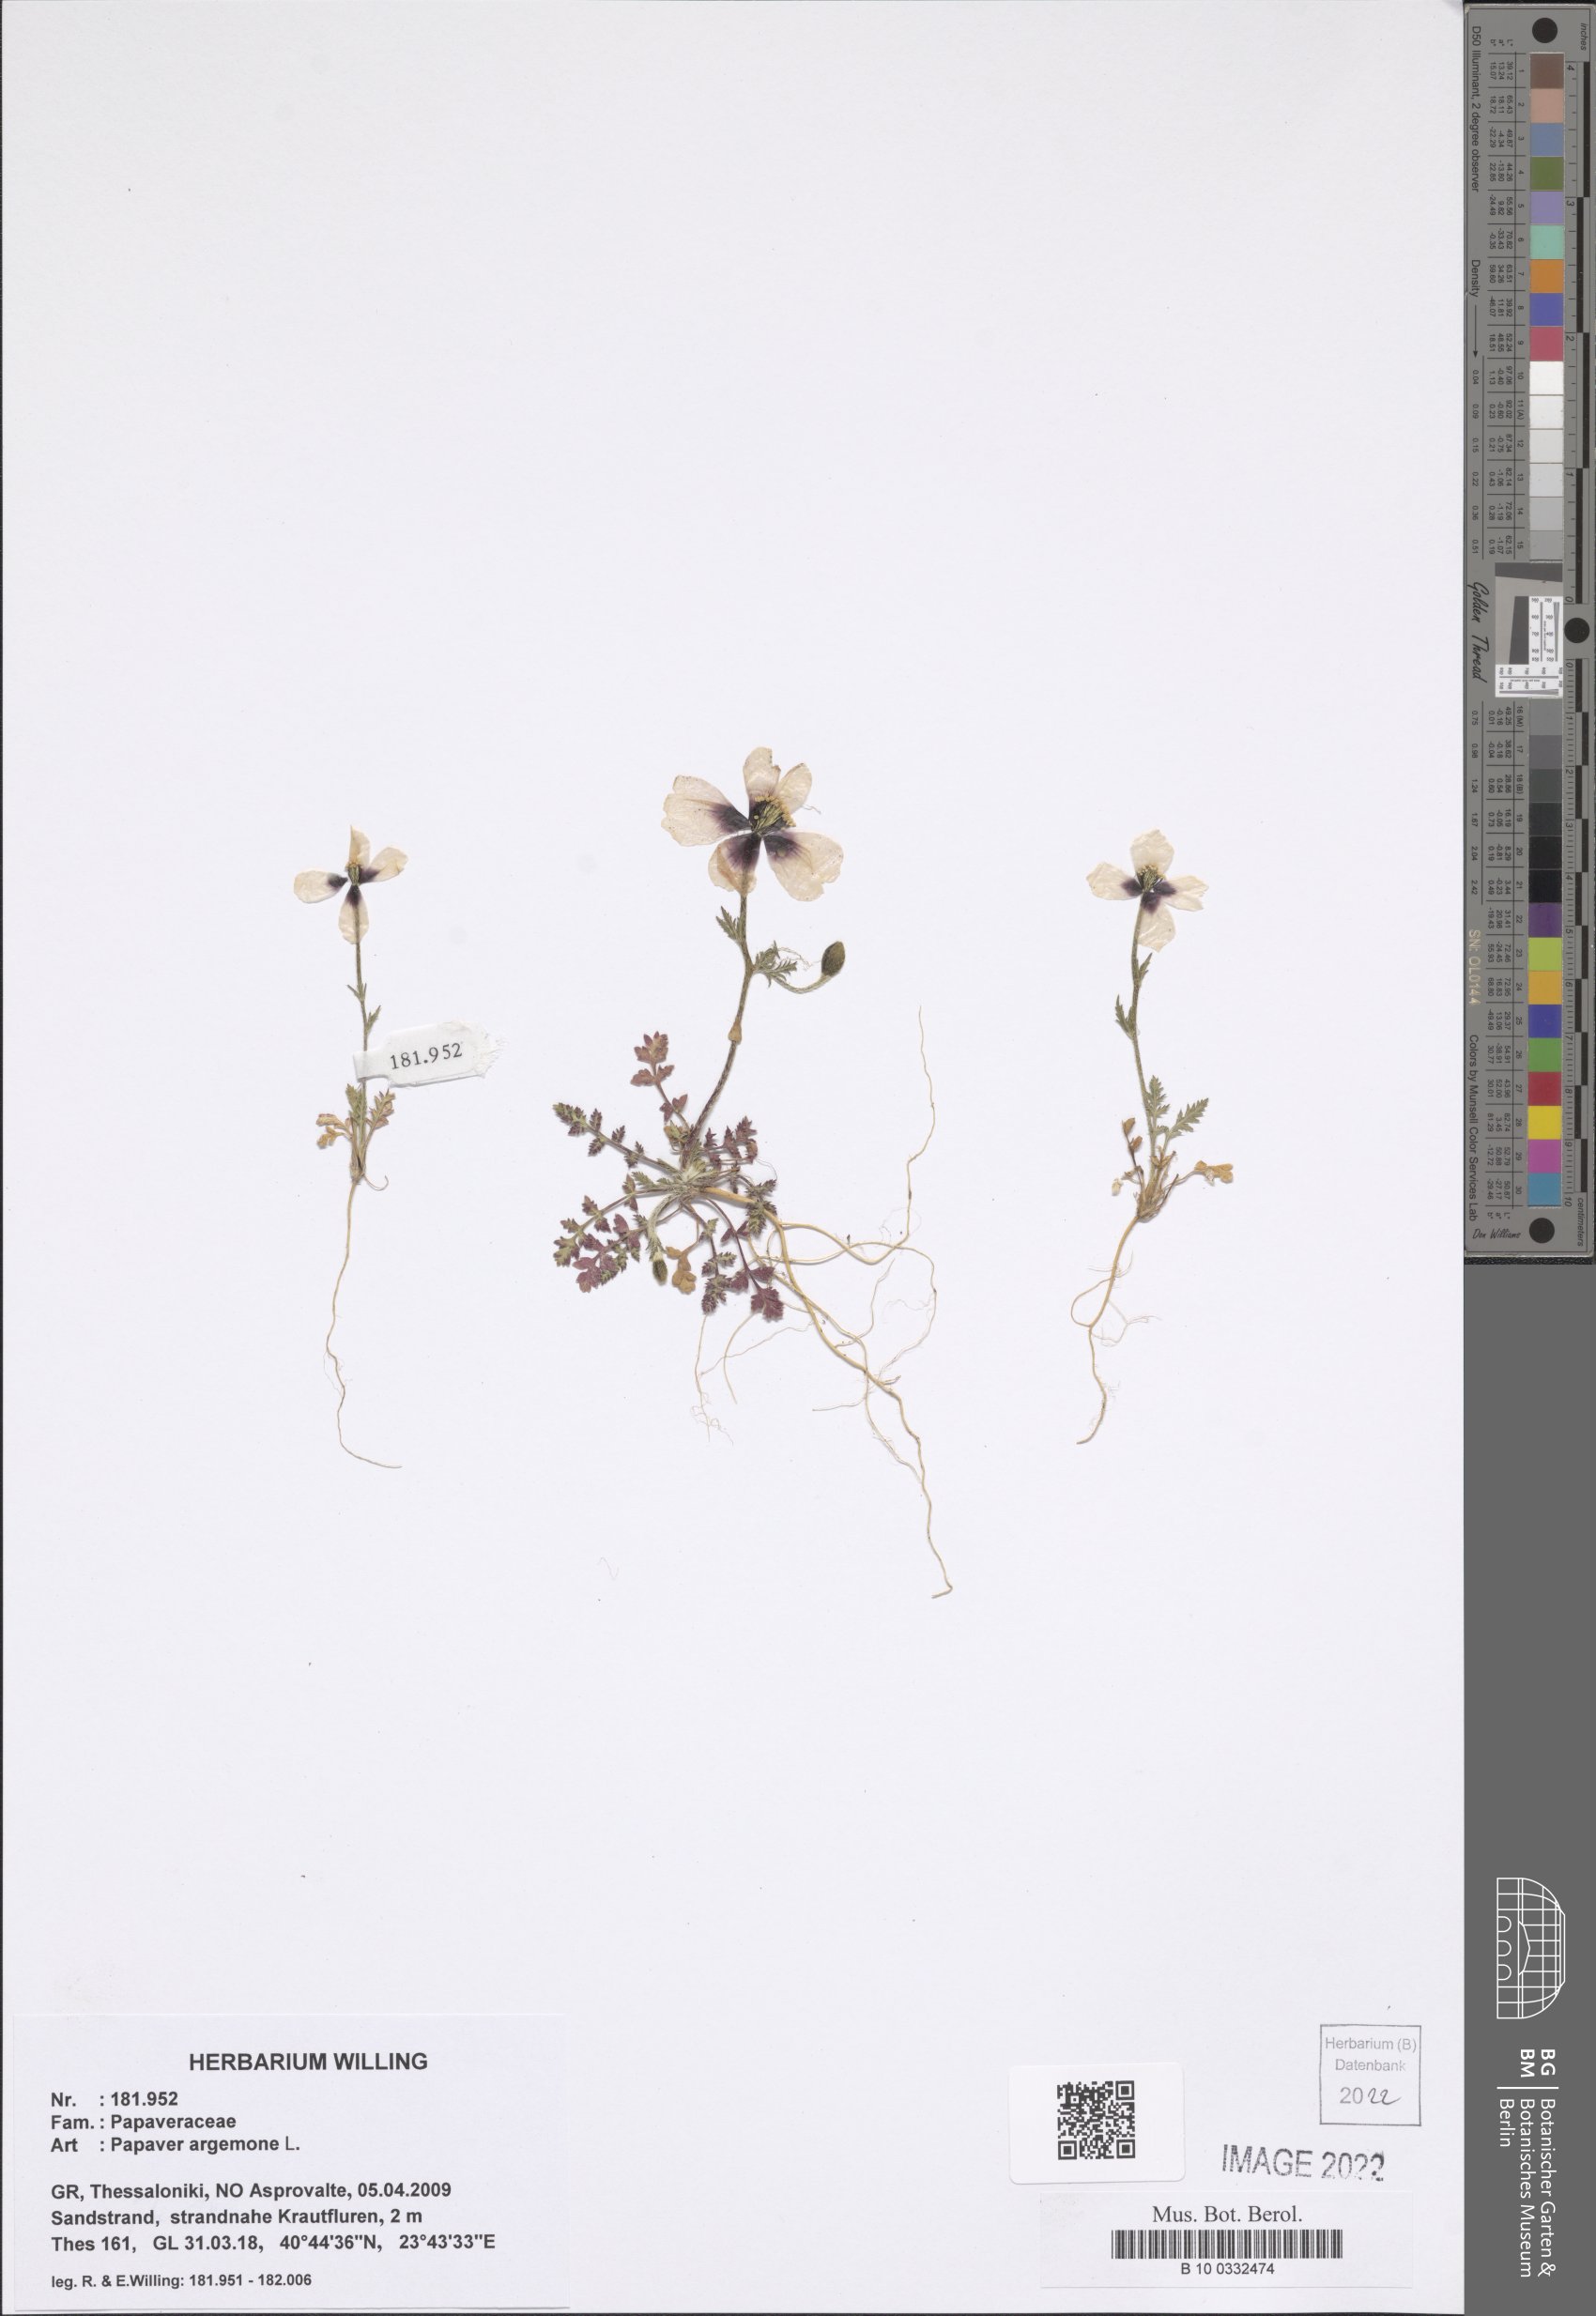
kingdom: Plantae
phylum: Tracheophyta
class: Magnoliopsida
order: Ranunculales
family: Papaveraceae
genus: Roemeria
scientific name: Roemeria argemone
